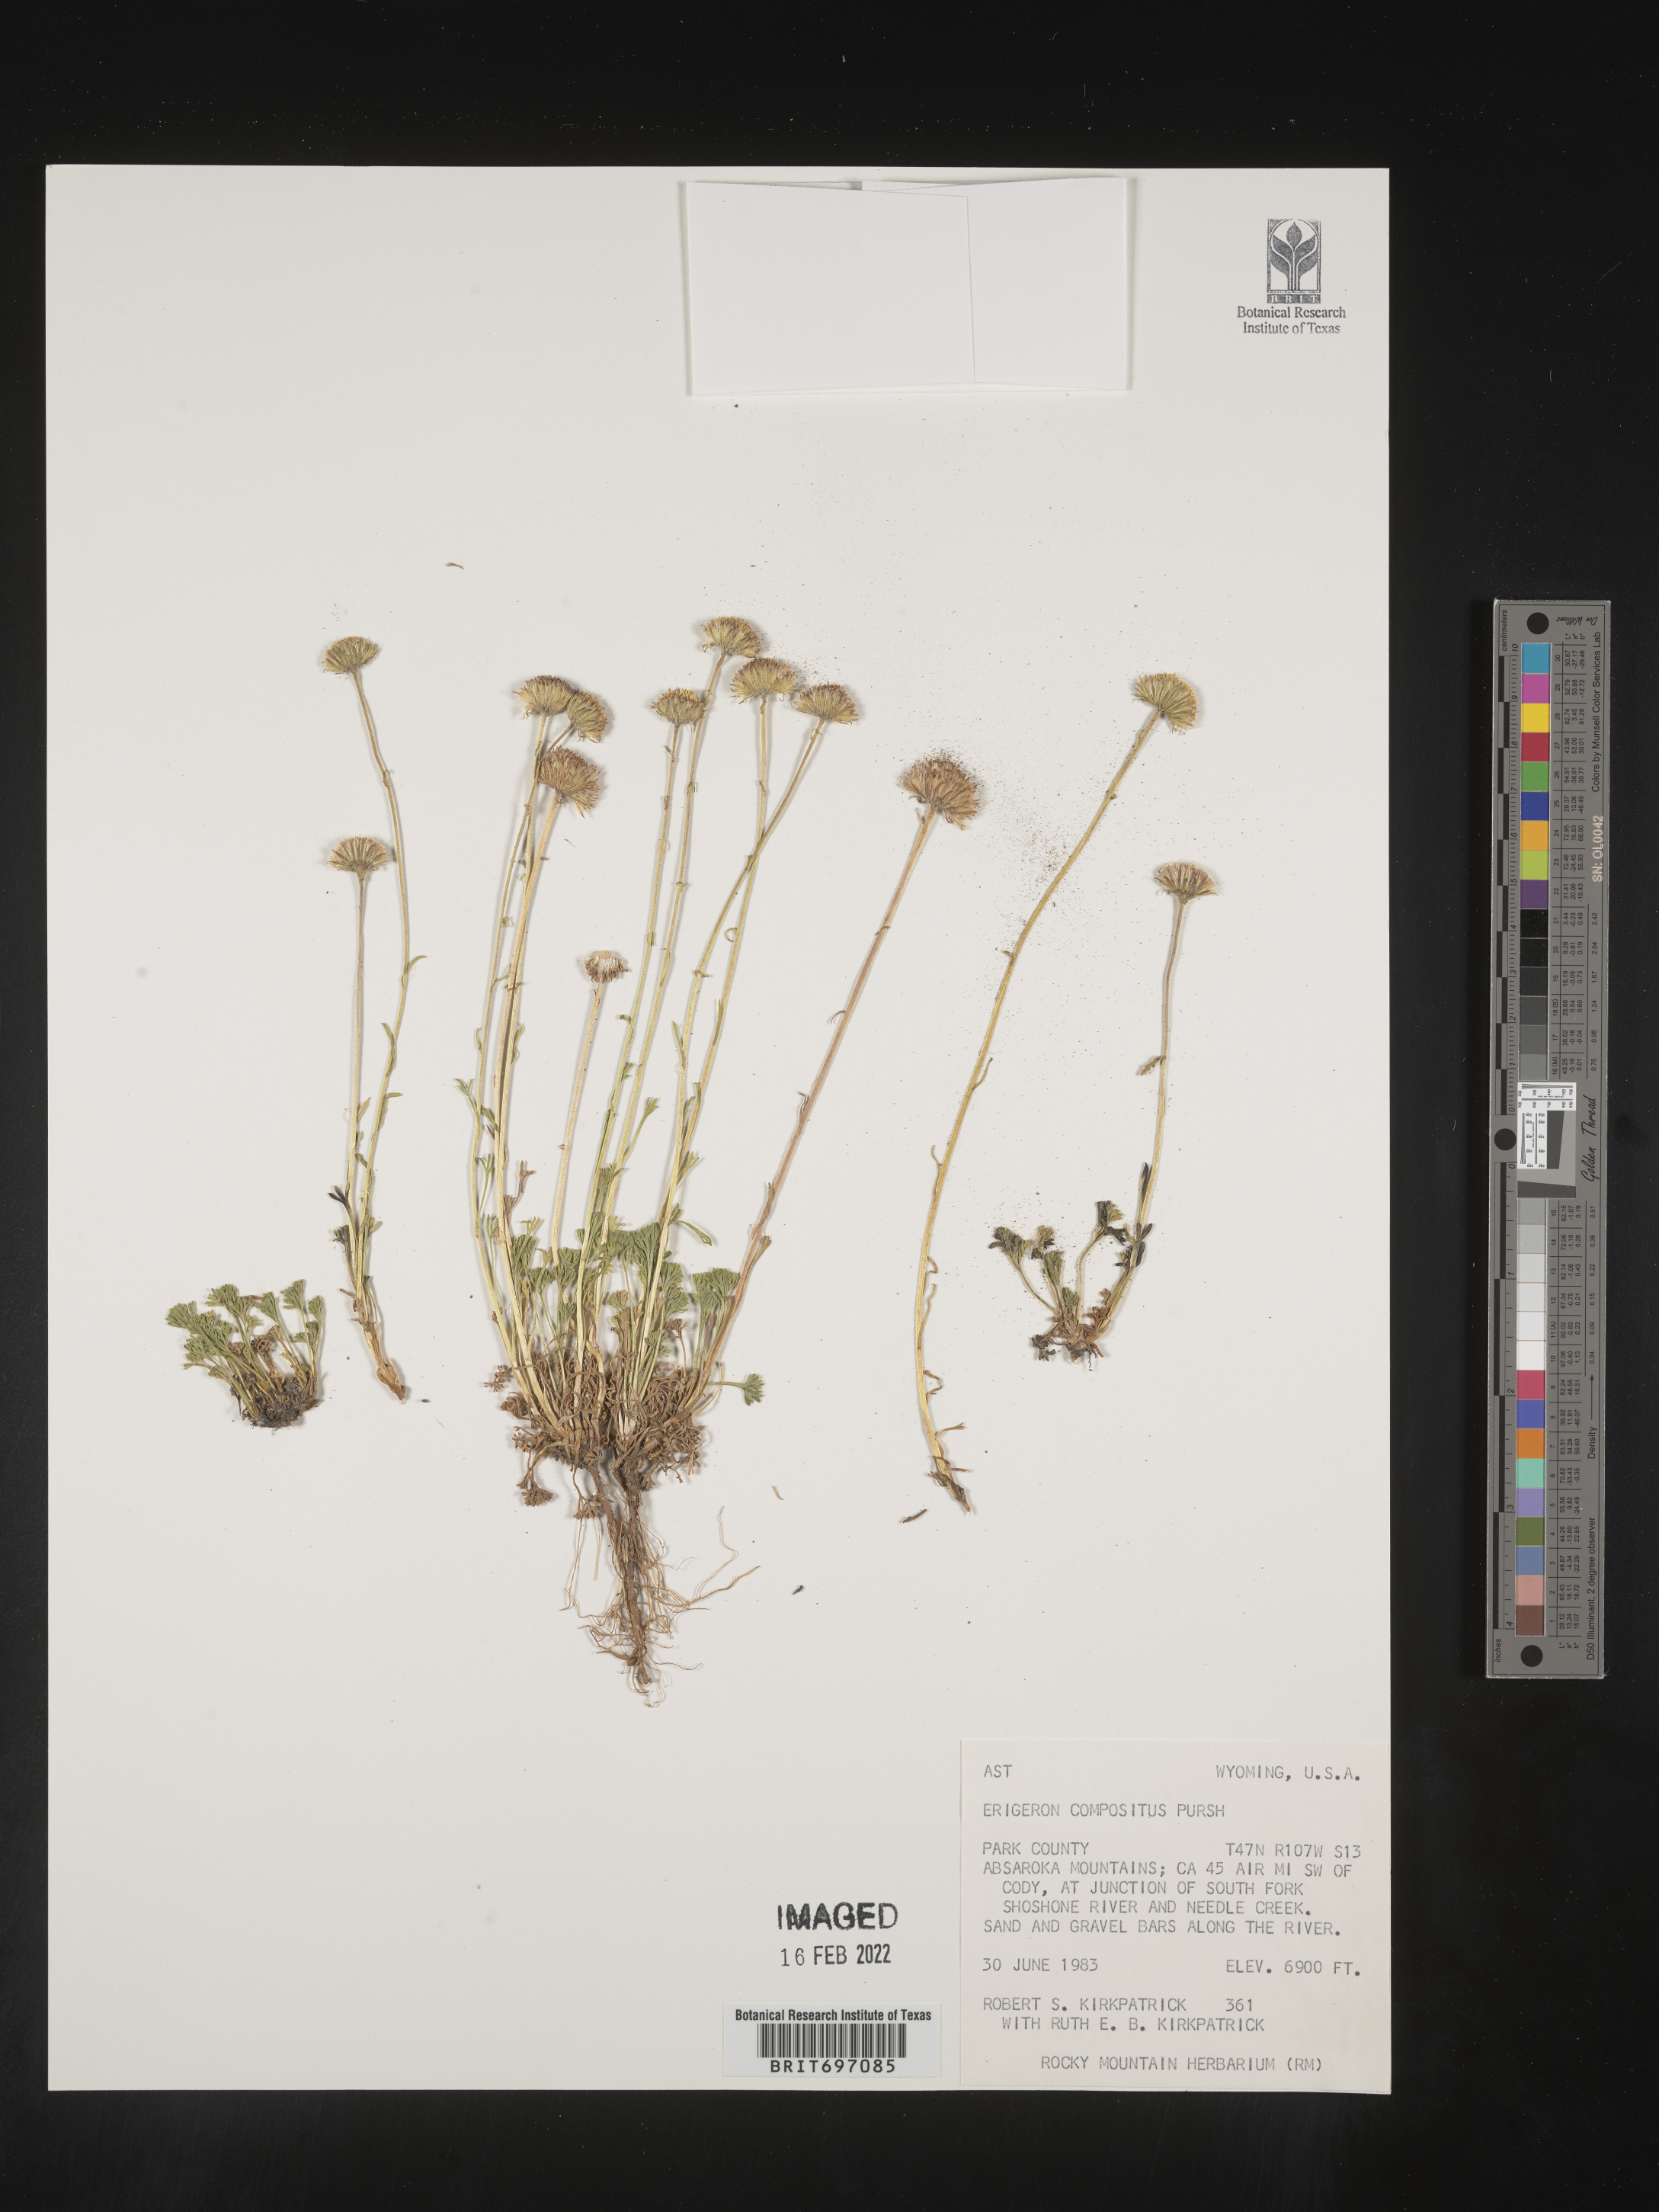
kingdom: Plantae
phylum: Tracheophyta
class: Magnoliopsida
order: Asterales
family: Asteraceae
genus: Erigeron
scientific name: Erigeron compositus
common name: Dwarf mountain fleabane
